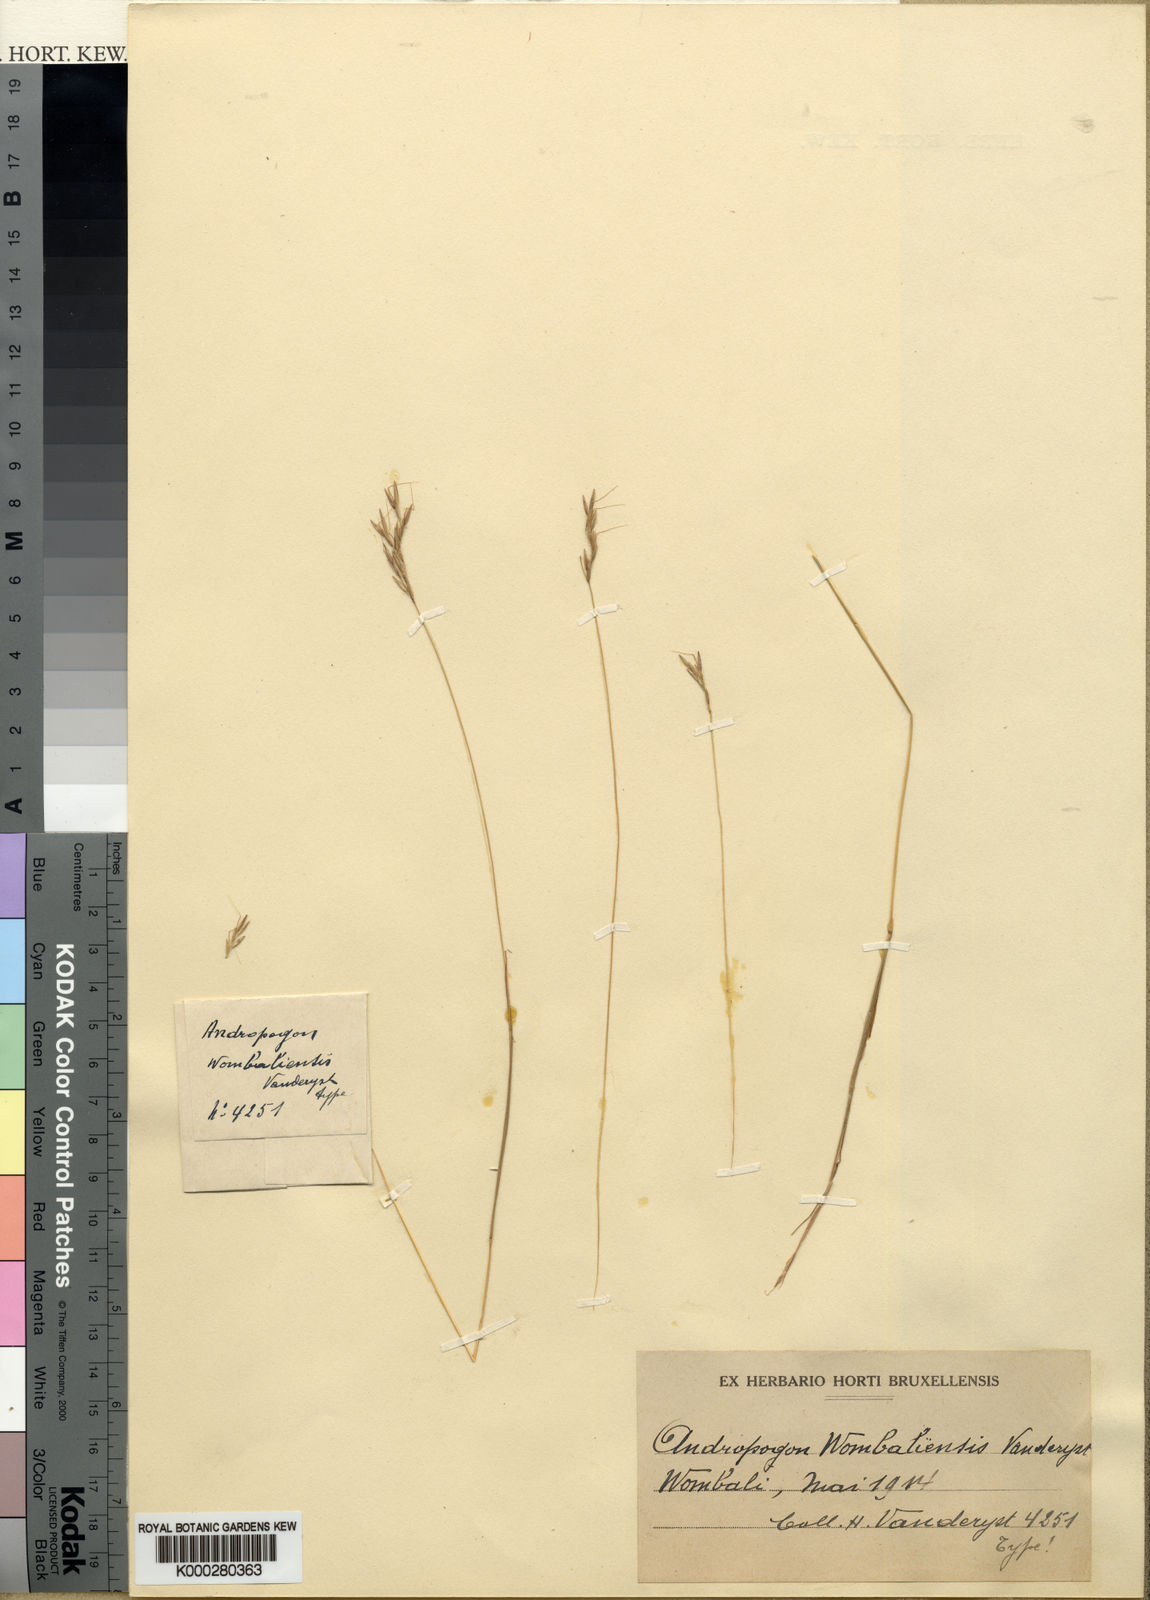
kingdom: Plantae
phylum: Tracheophyta
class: Liliopsida
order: Poales
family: Poaceae
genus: Hyparrhenia
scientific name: Hyparrhenia wombaliensis
